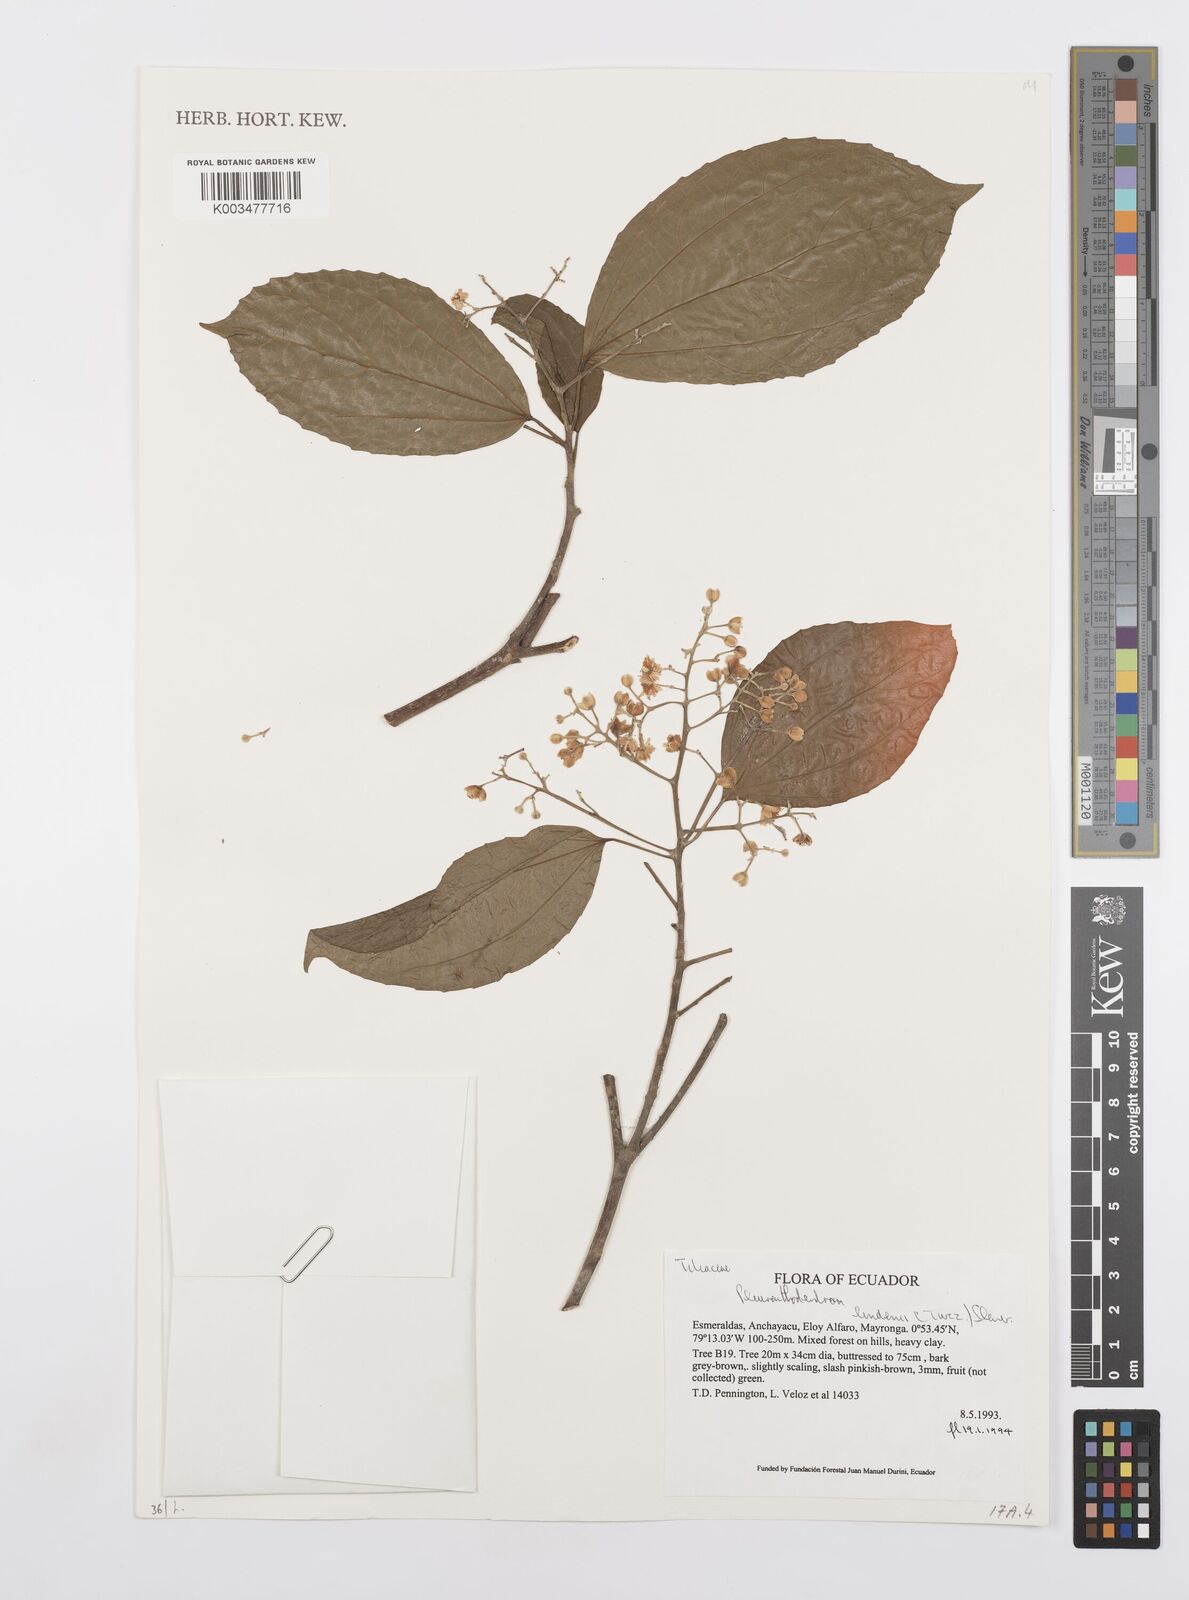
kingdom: Plantae
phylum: Tracheophyta
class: Magnoliopsida
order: Malpighiales
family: Salicaceae
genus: Pleuranthodendron
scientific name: Pleuranthodendron lindenii
